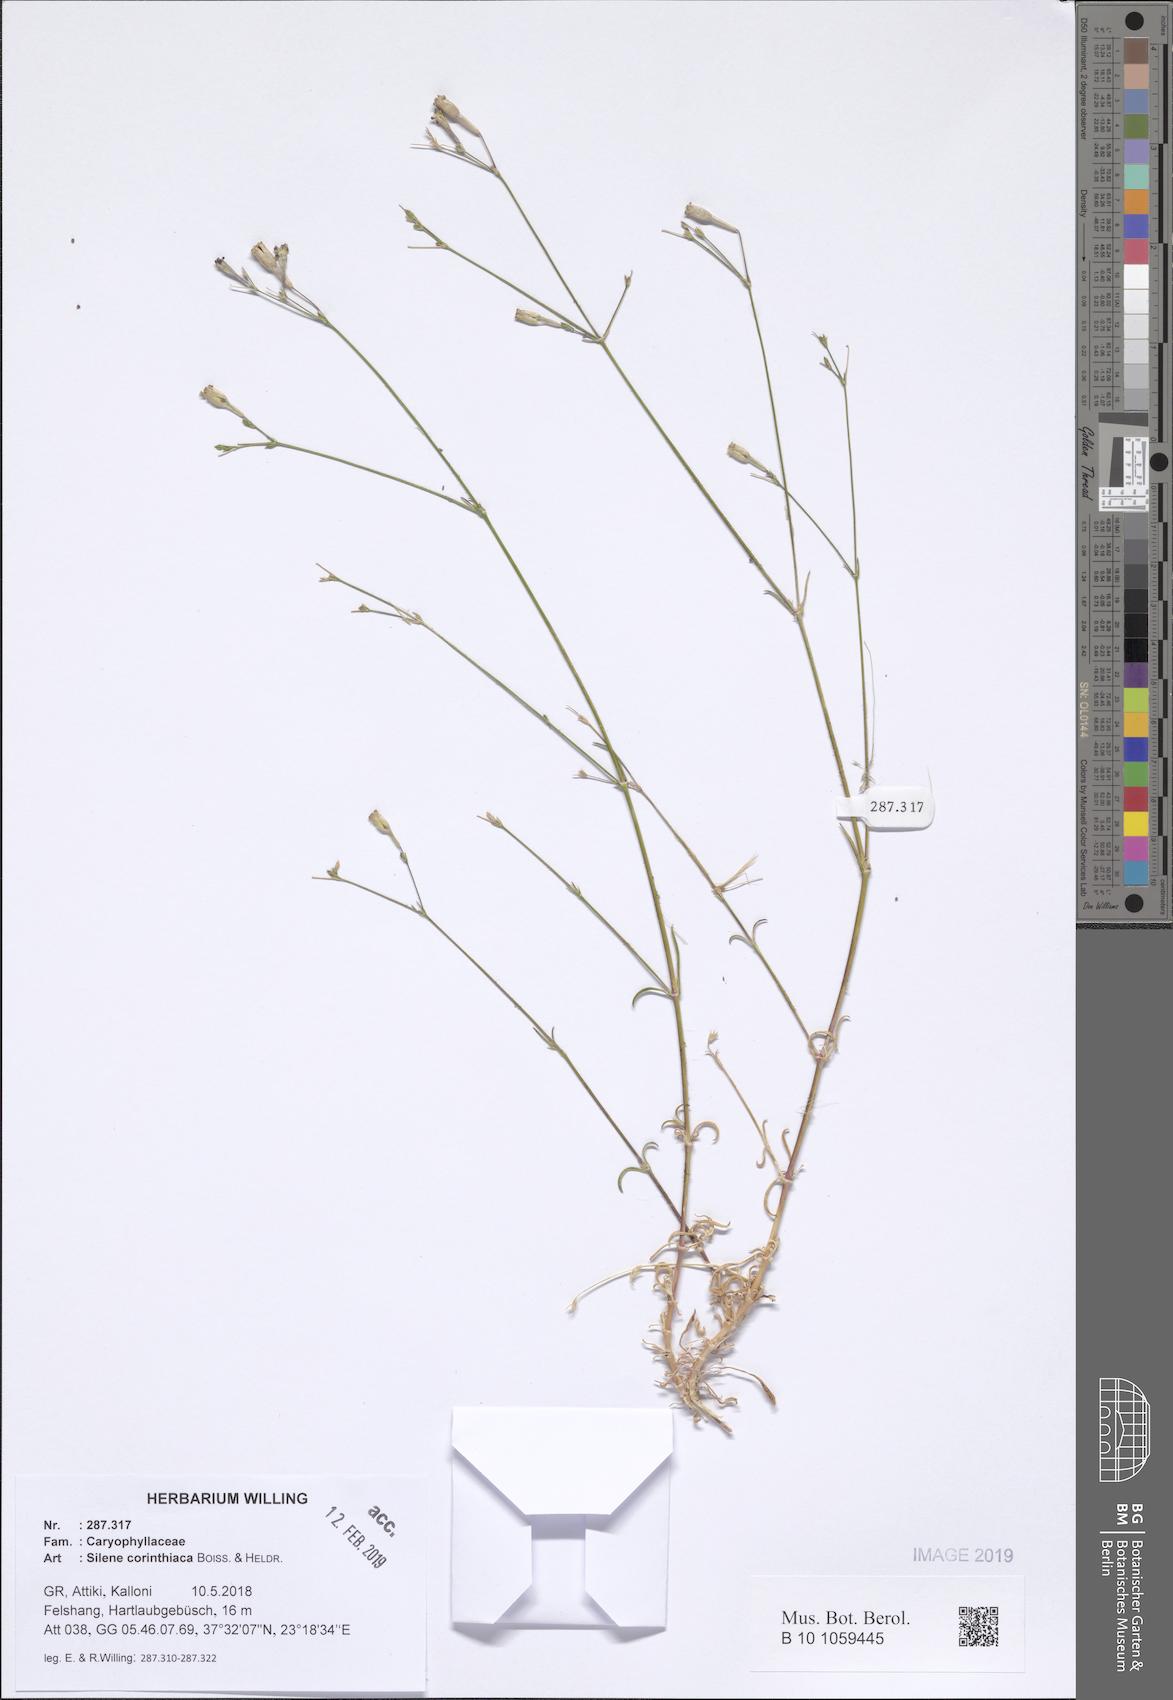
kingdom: Plantae
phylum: Tracheophyta
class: Magnoliopsida
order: Caryophyllales
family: Caryophyllaceae
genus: Silene
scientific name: Silene corinthiaca
